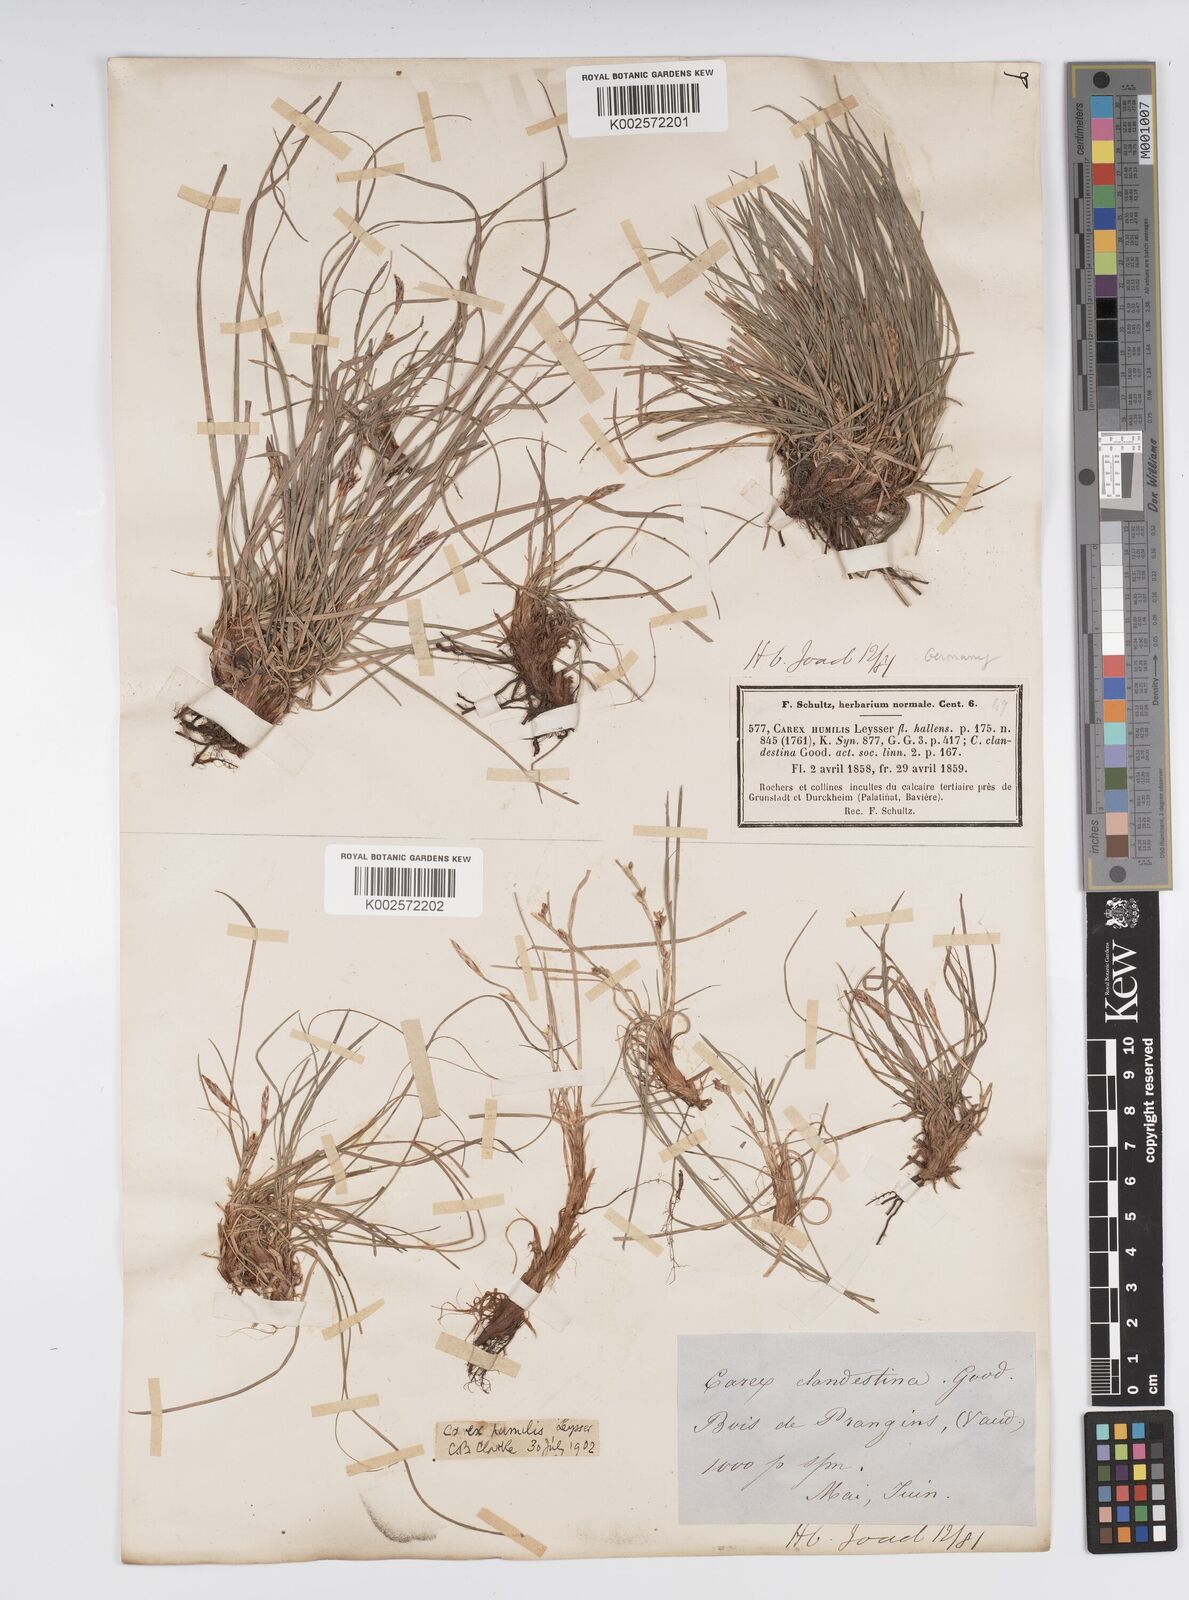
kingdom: Plantae
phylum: Tracheophyta
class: Liliopsida
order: Poales
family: Cyperaceae
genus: Carex
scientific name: Carex humilis
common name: Dwarf sedge
